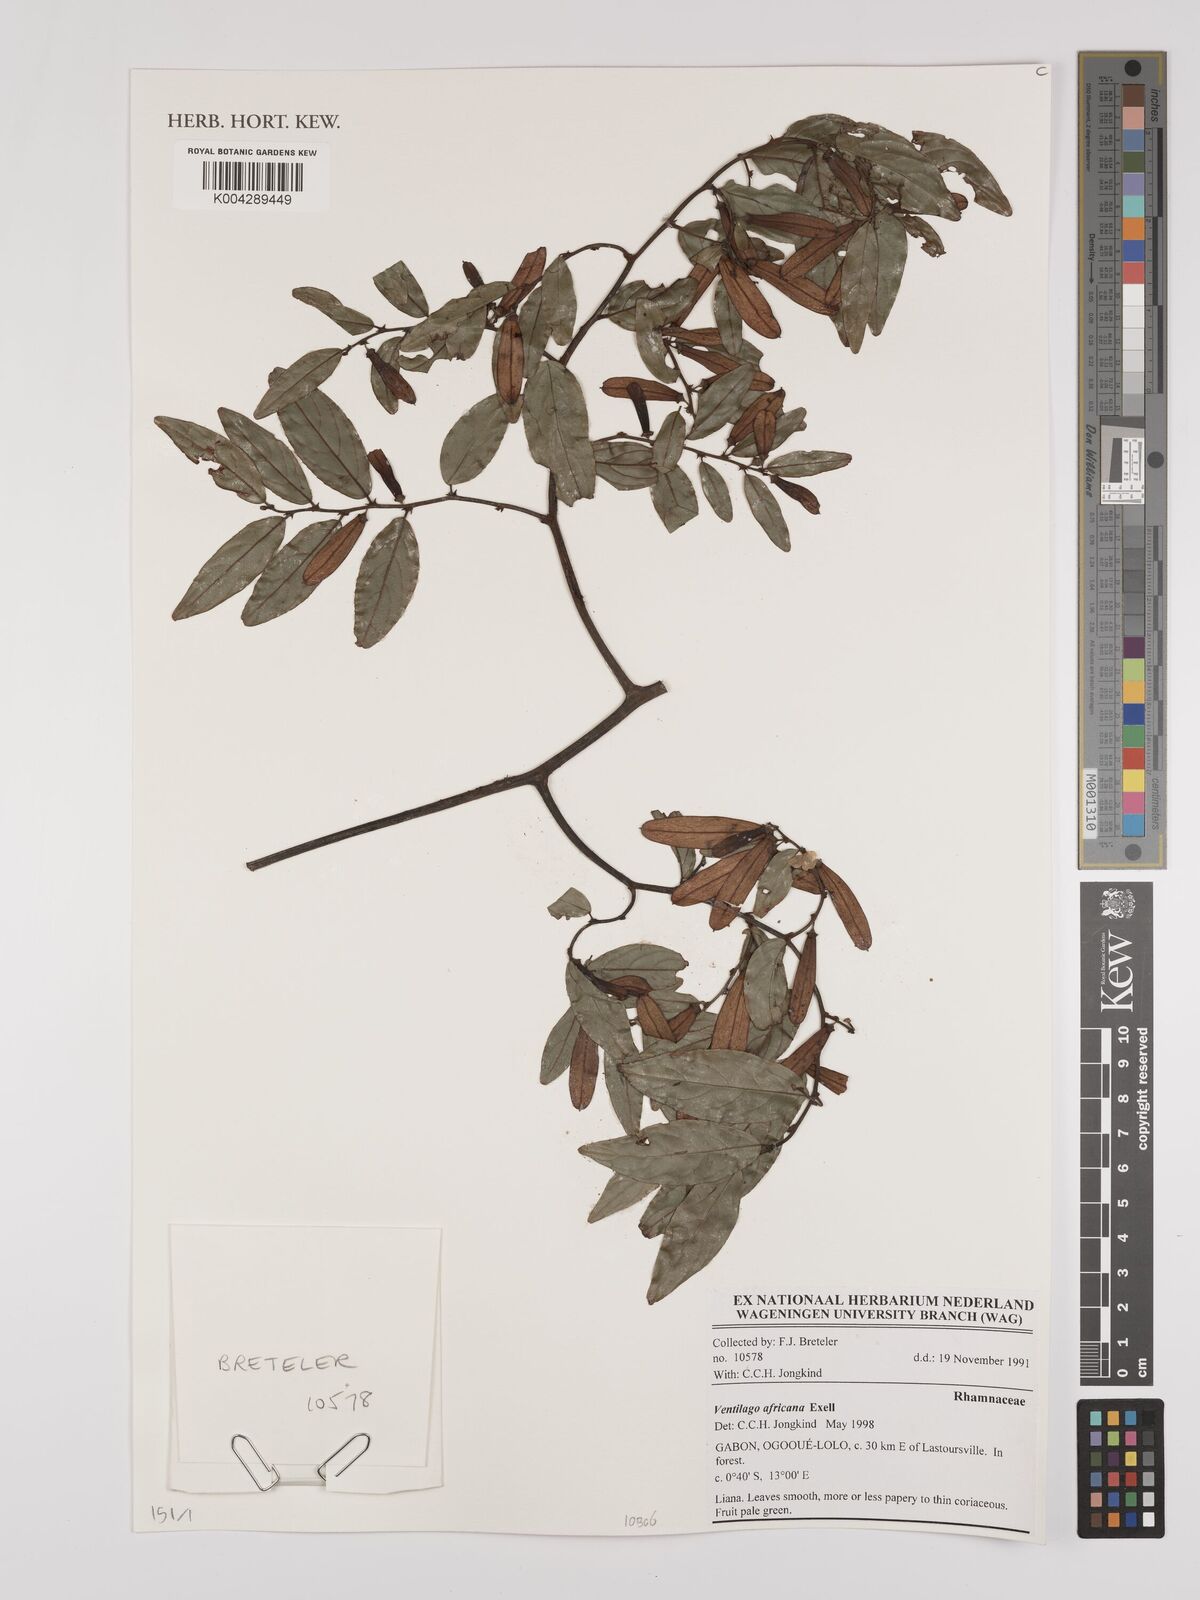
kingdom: Plantae
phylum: Tracheophyta
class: Magnoliopsida
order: Rosales
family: Rhamnaceae
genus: Ventilago
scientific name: Ventilago africana
